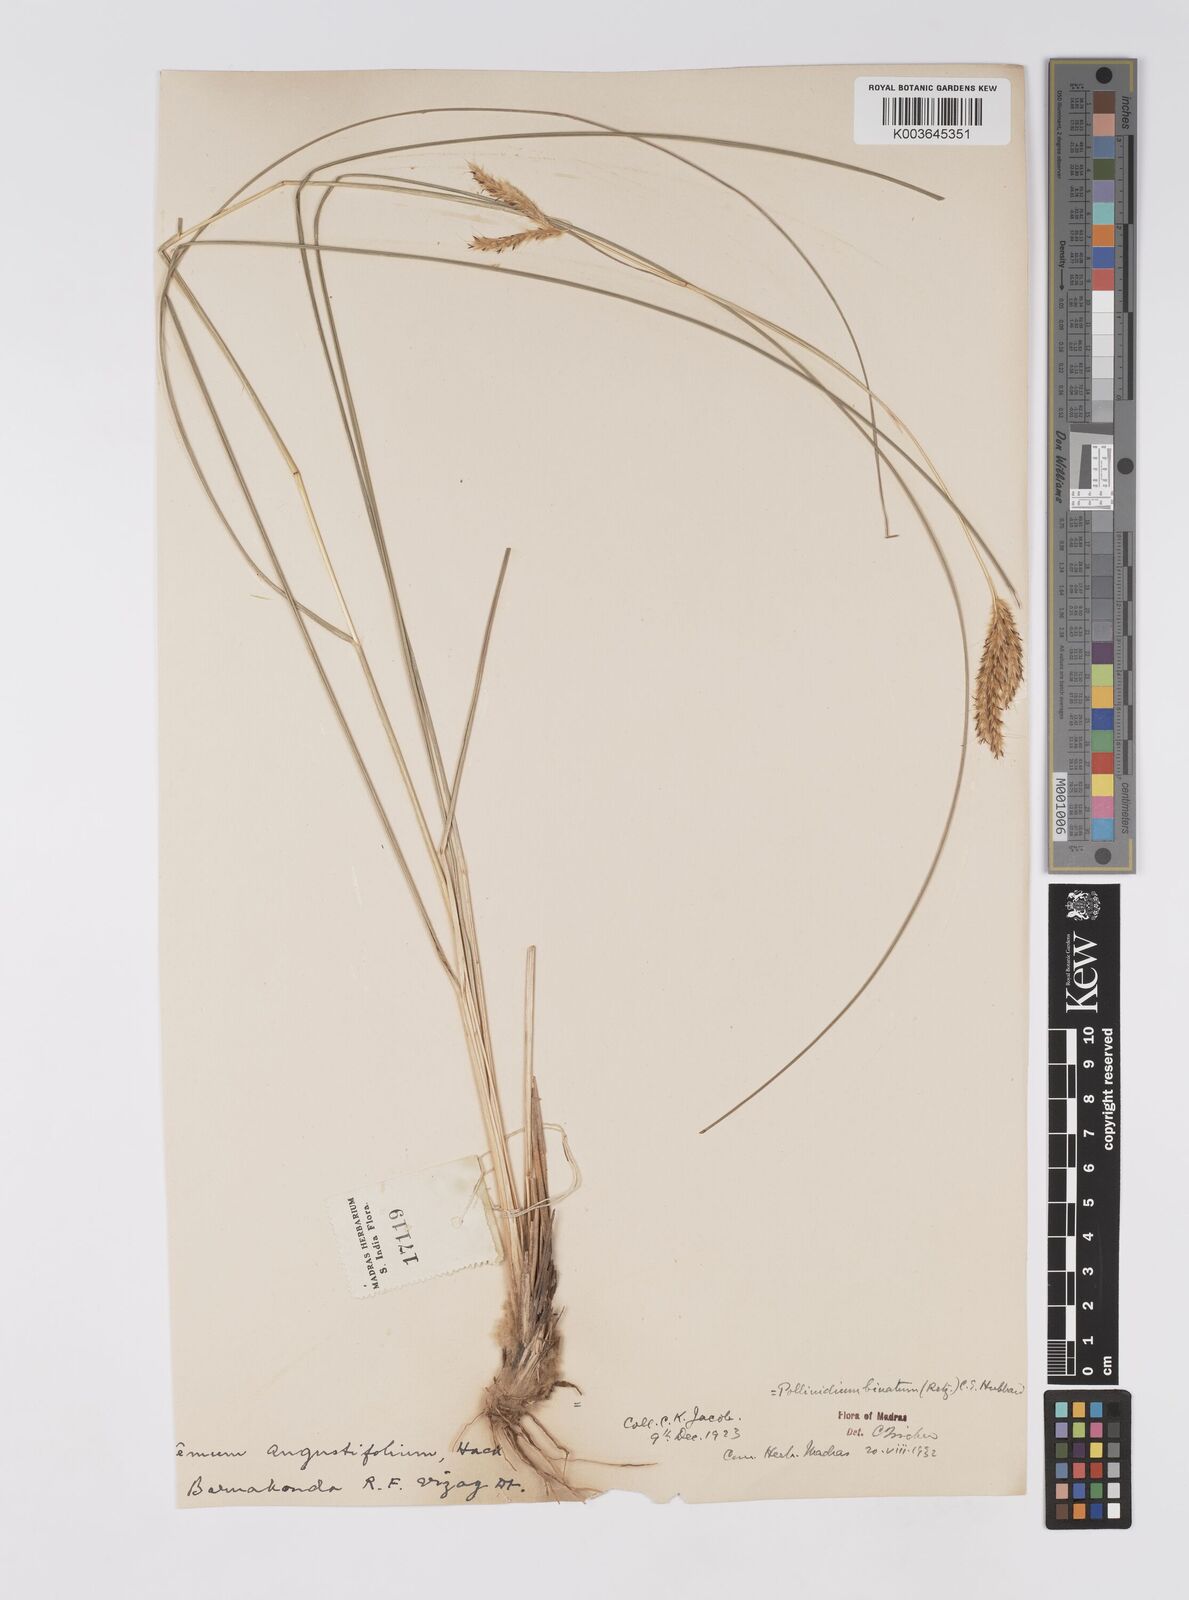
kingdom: Plantae
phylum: Tracheophyta
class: Liliopsida
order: Poales
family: Poaceae
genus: Eulaliopsis
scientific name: Eulaliopsis binata
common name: Baib grass
